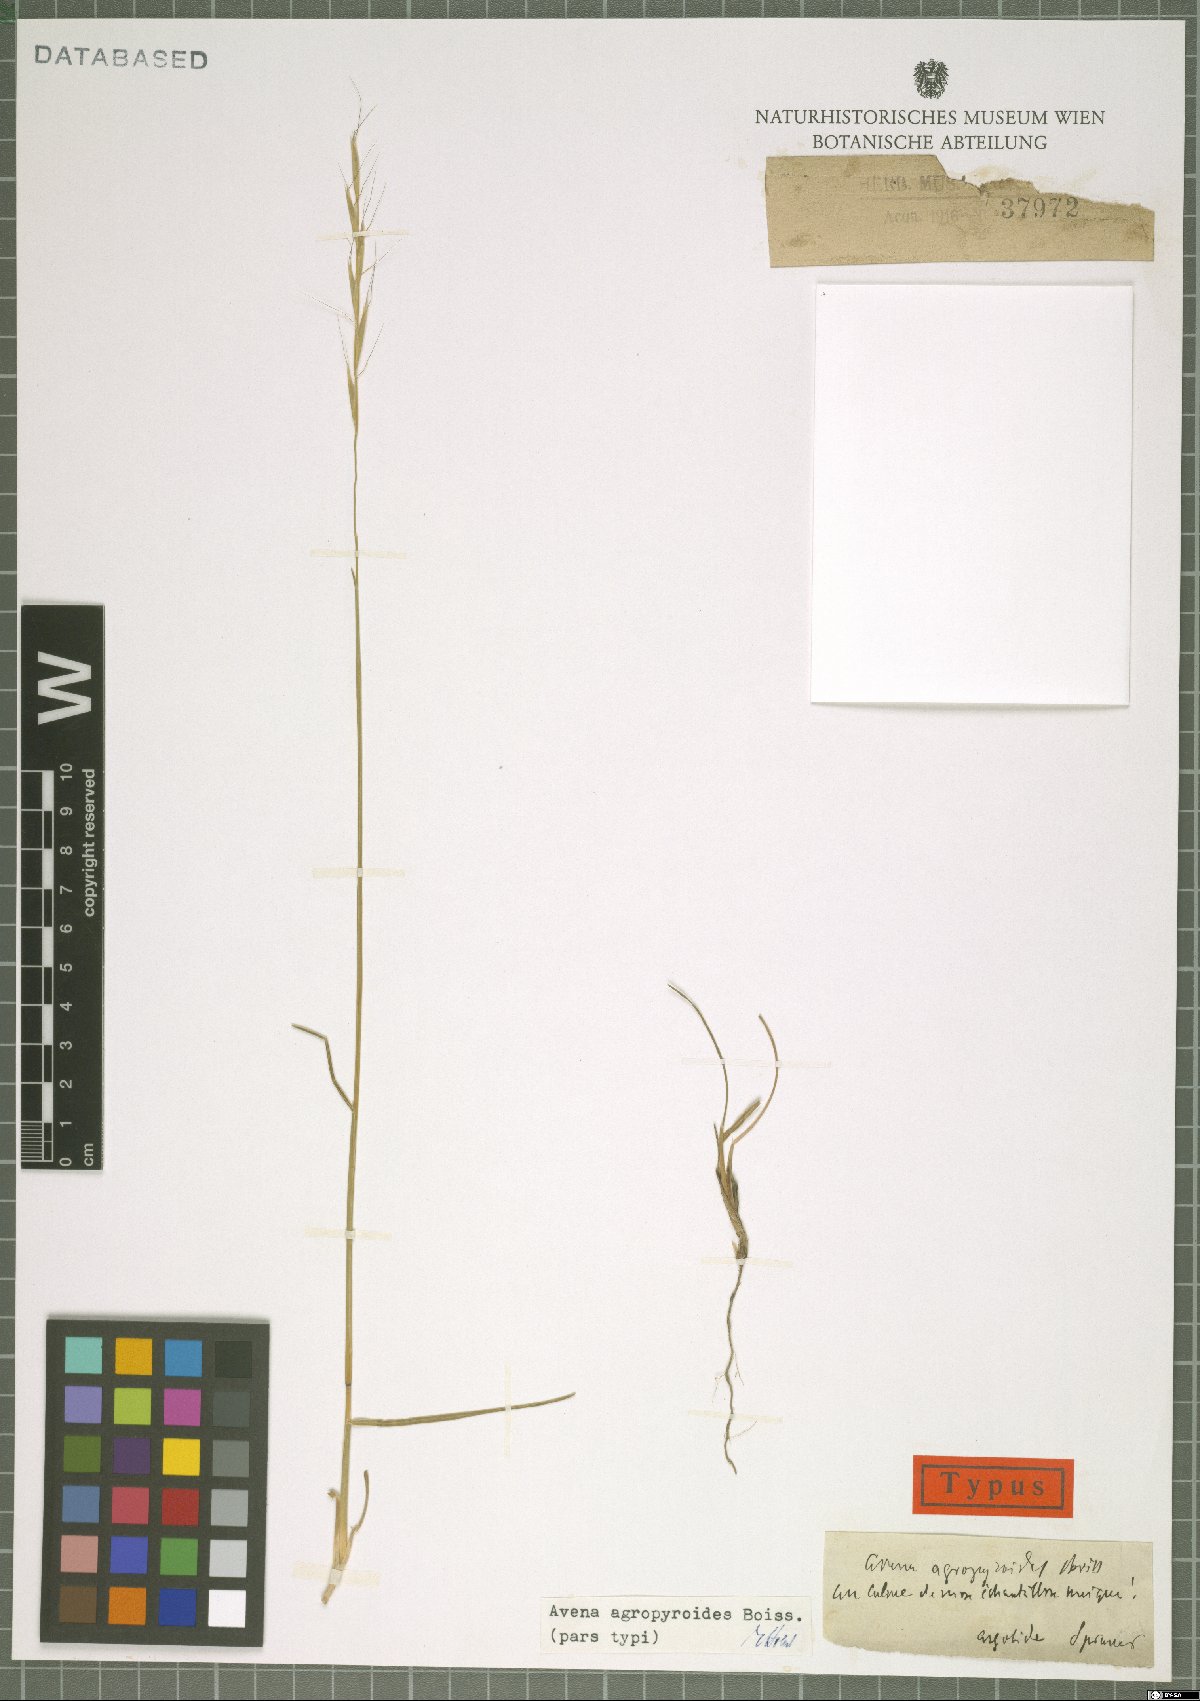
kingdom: Plantae
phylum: Tracheophyta
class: Liliopsida
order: Poales
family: Poaceae
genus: Helictochloa
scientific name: Helictochloa agropyroides
